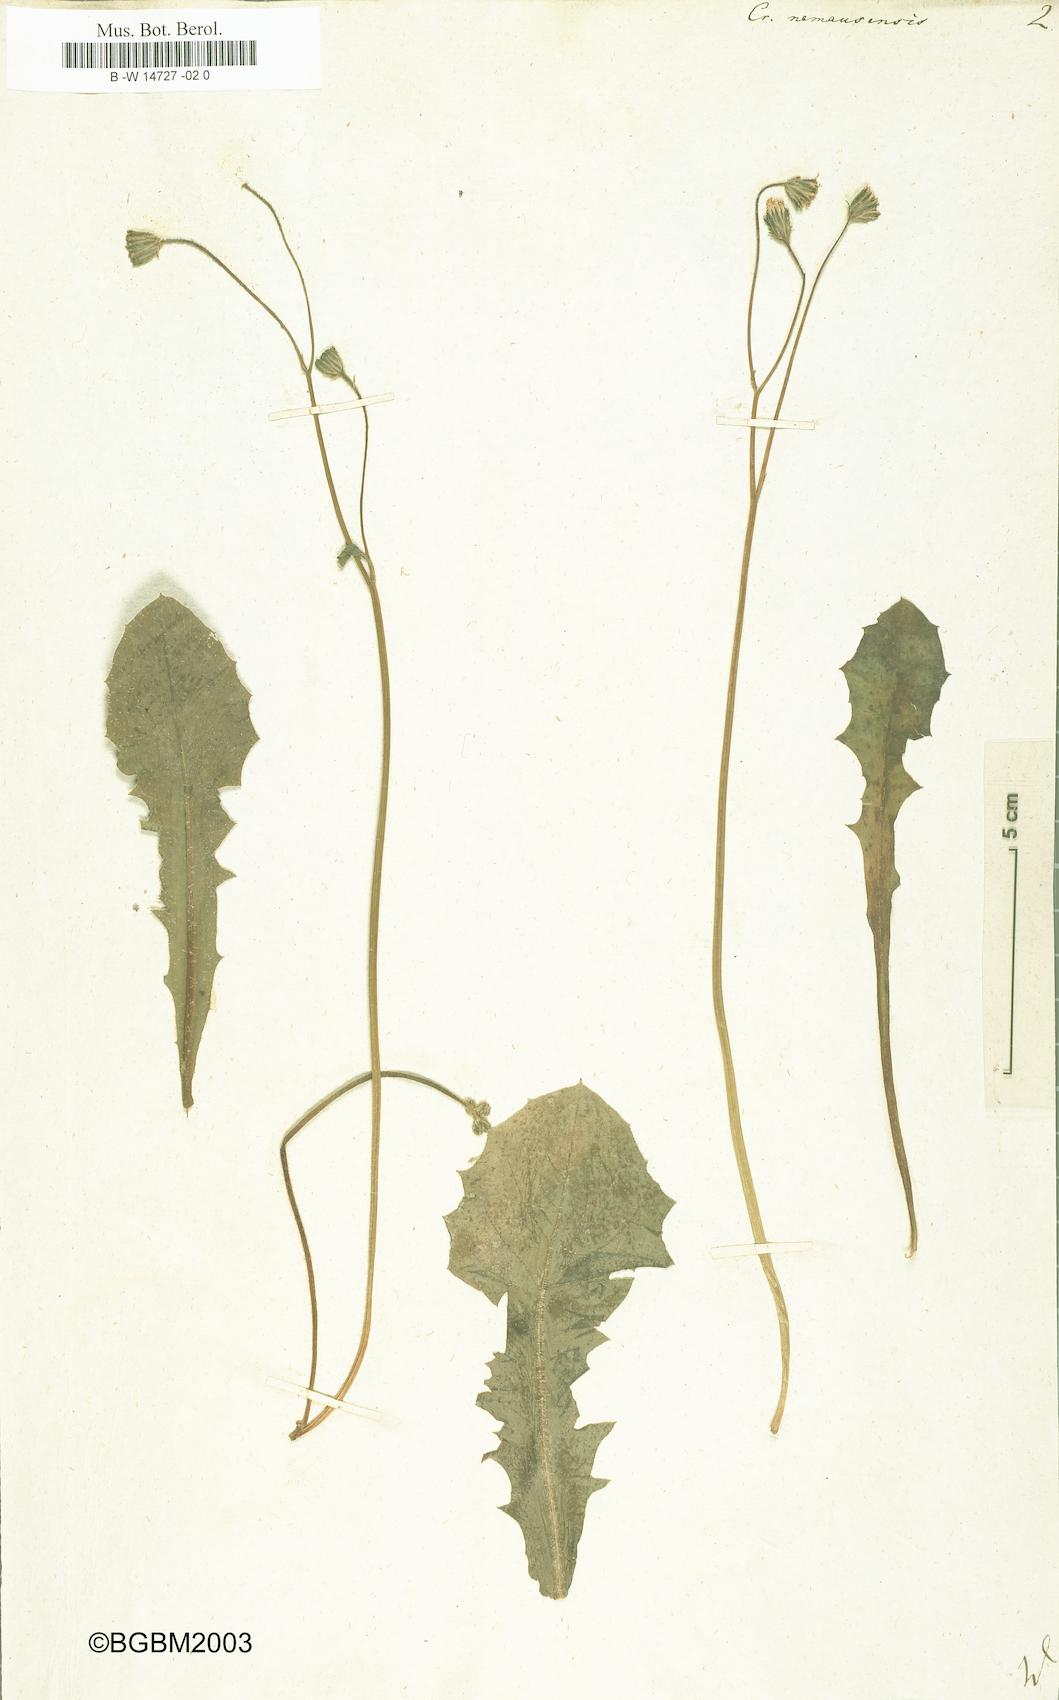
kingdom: Plantae
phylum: Tracheophyta
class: Magnoliopsida
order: Asterales
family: Asteraceae
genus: Crepis
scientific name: Crepis nemausensis
